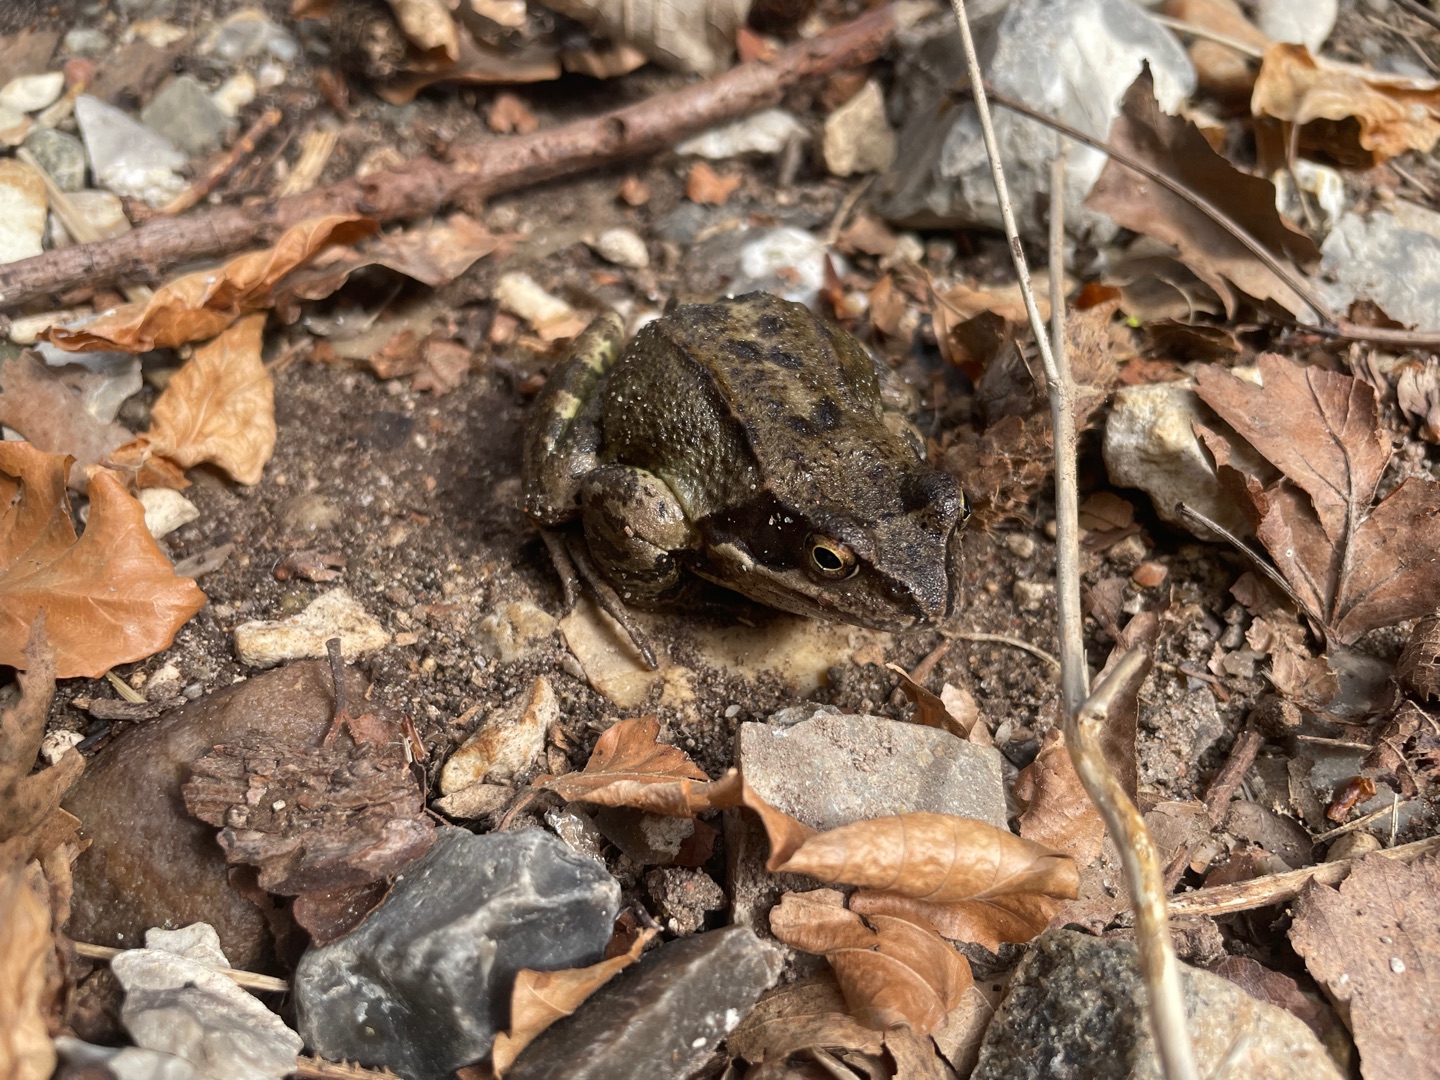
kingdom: Animalia
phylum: Chordata
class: Amphibia
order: Anura
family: Ranidae
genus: Rana
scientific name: Rana temporaria
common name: Butsnudet frø
